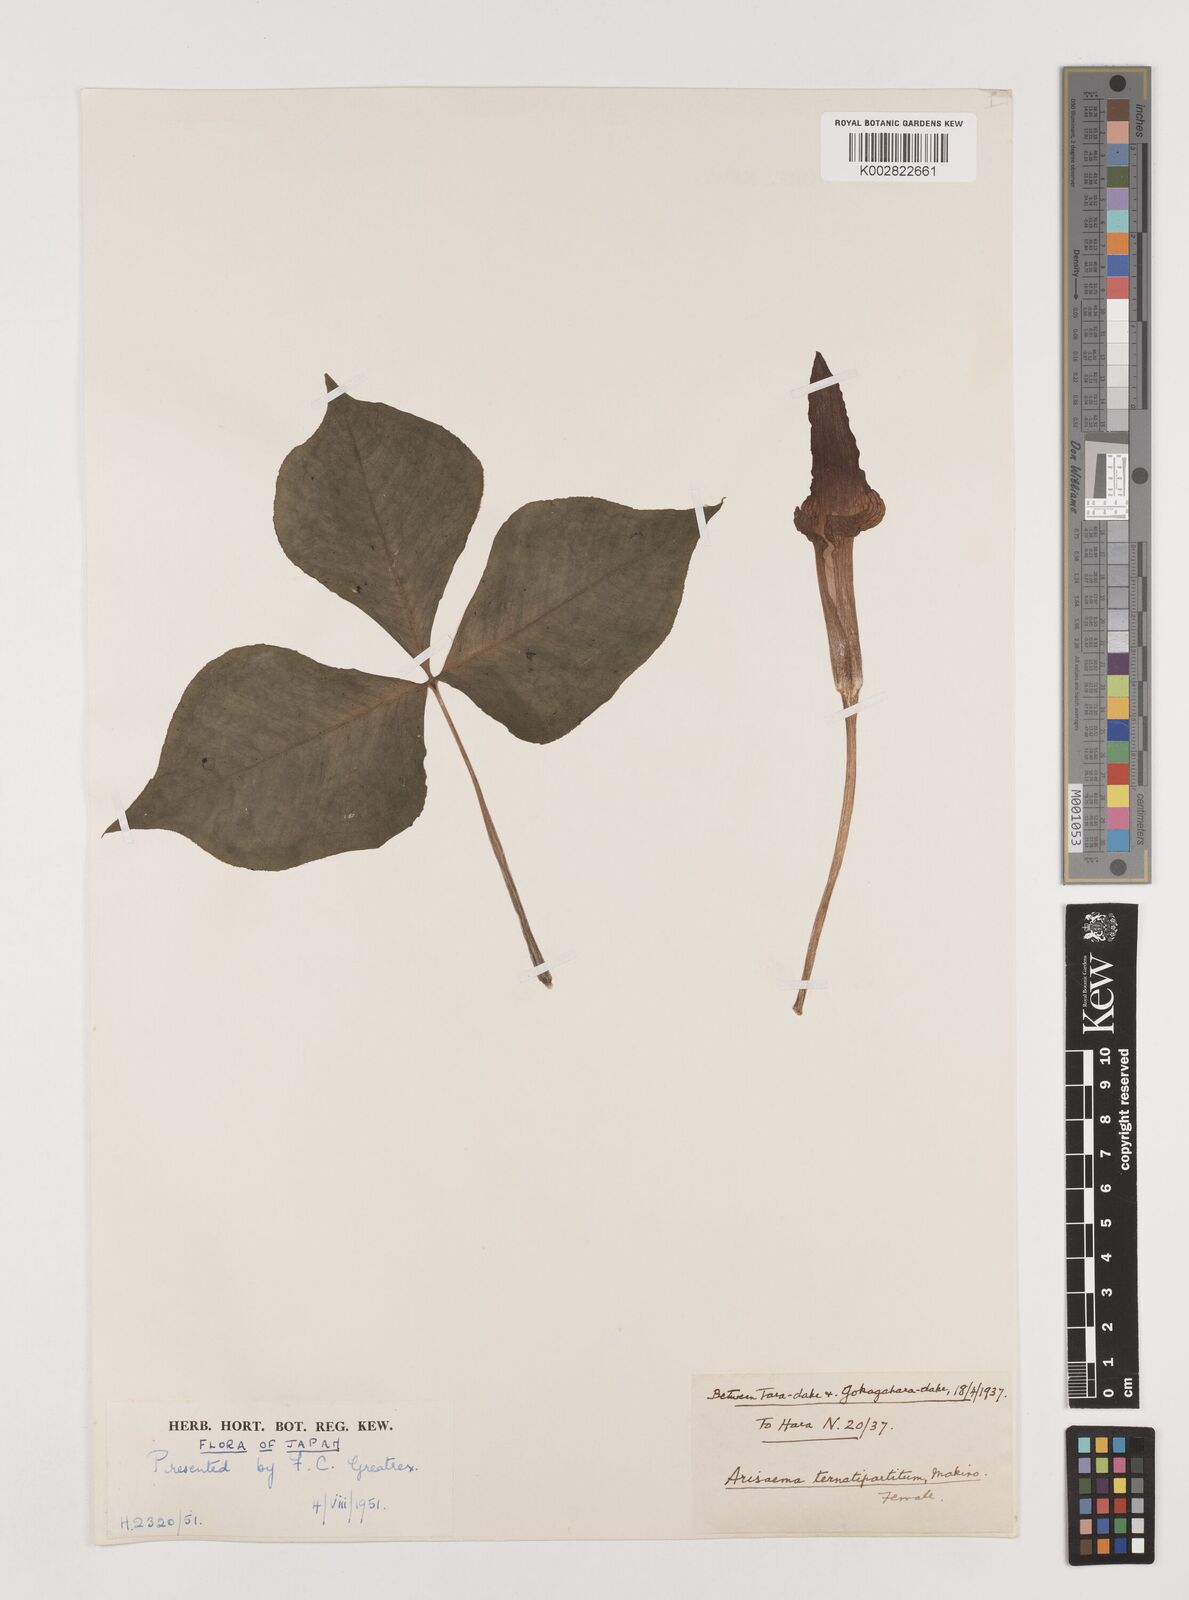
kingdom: Plantae
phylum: Tracheophyta
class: Liliopsida
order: Alismatales
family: Araceae
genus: Arisaema
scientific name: Arisaema ternatipartitum
